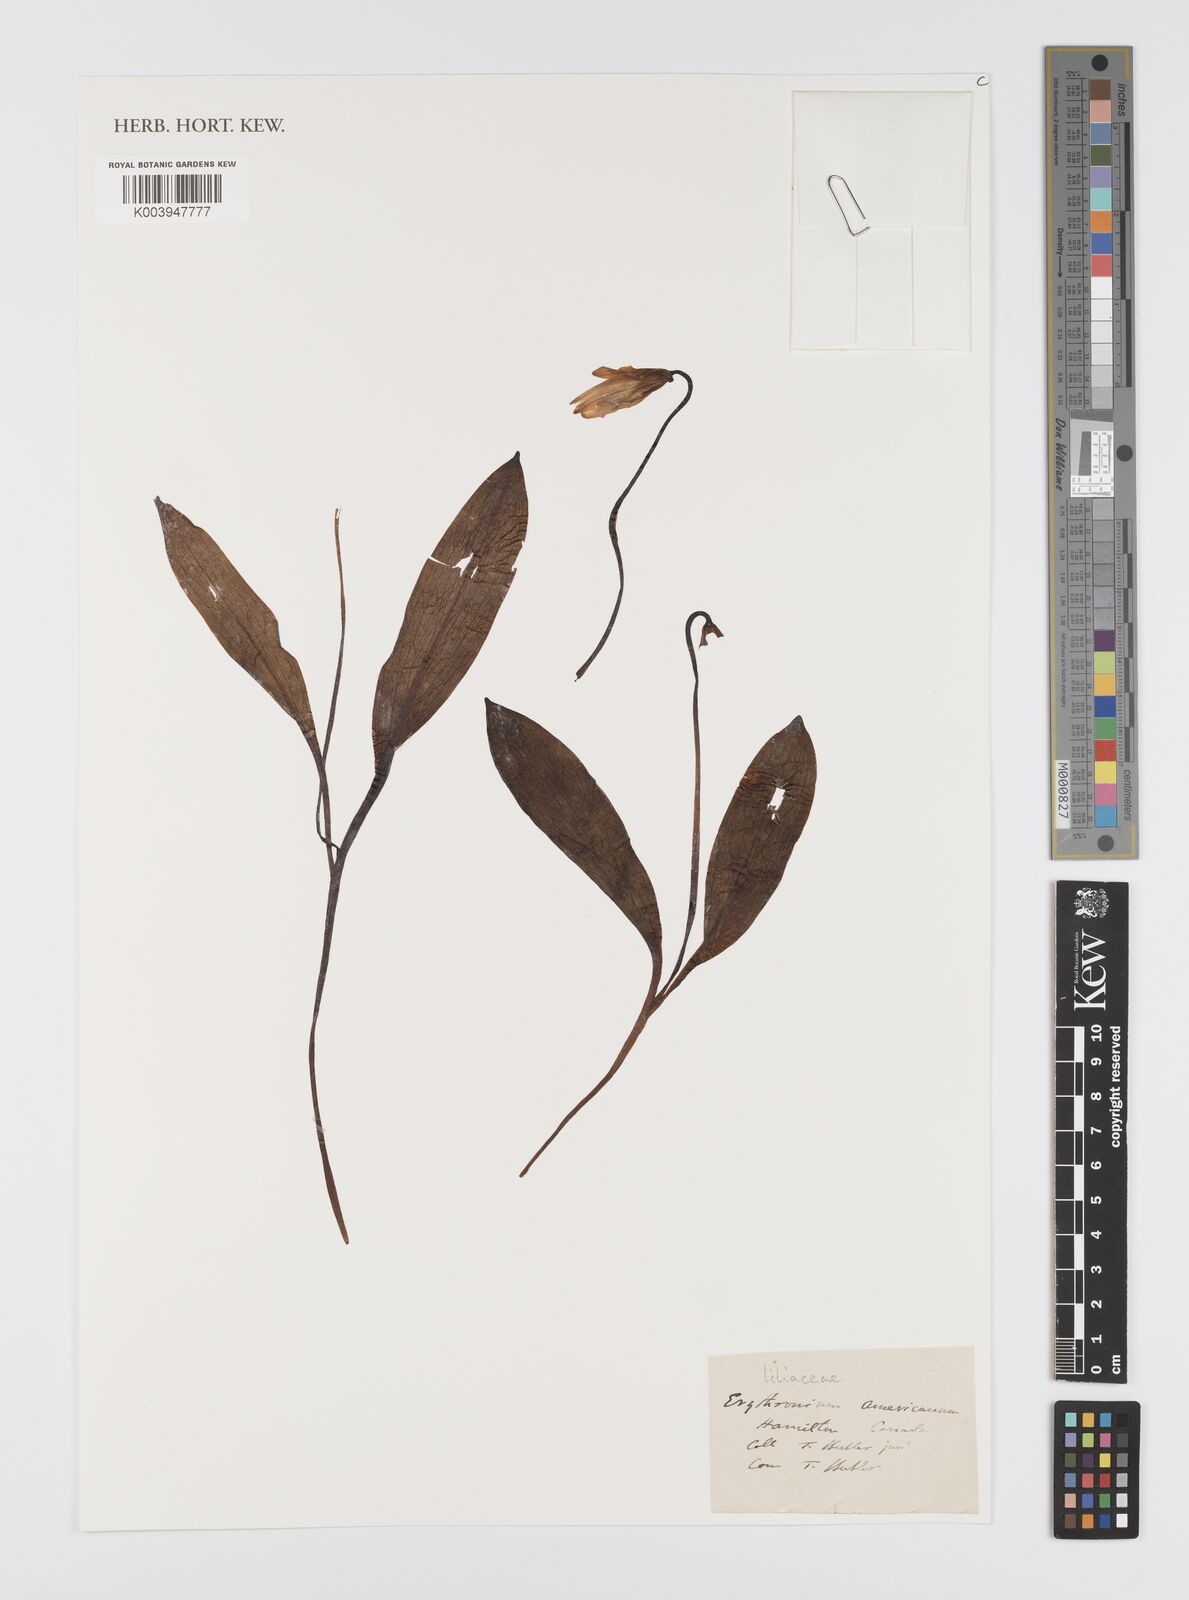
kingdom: Plantae
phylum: Tracheophyta
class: Liliopsida
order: Liliales
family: Liliaceae
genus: Erythronium
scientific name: Erythronium americanum
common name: Yellow adder's-tongue
